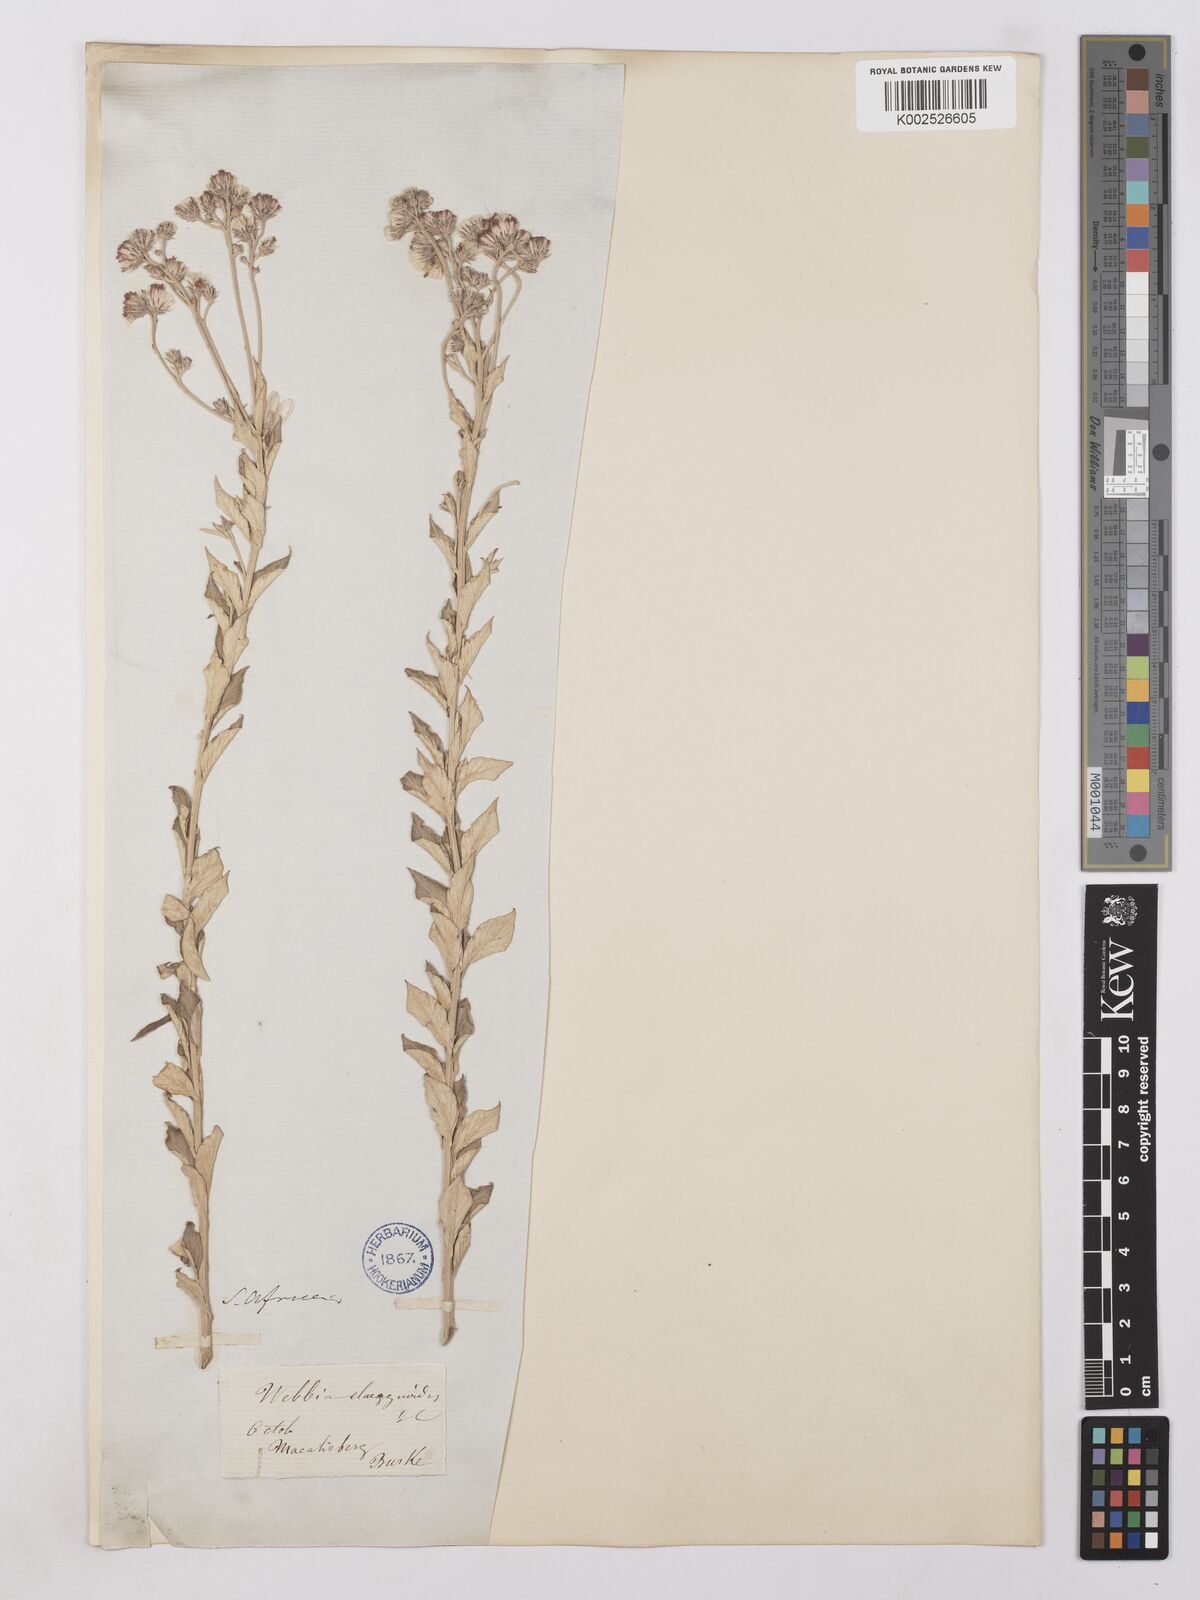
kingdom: Plantae
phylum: Tracheophyta
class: Magnoliopsida
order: Asterales
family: Asteraceae
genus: Lepidaploa
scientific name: Lepidaploa aurea
